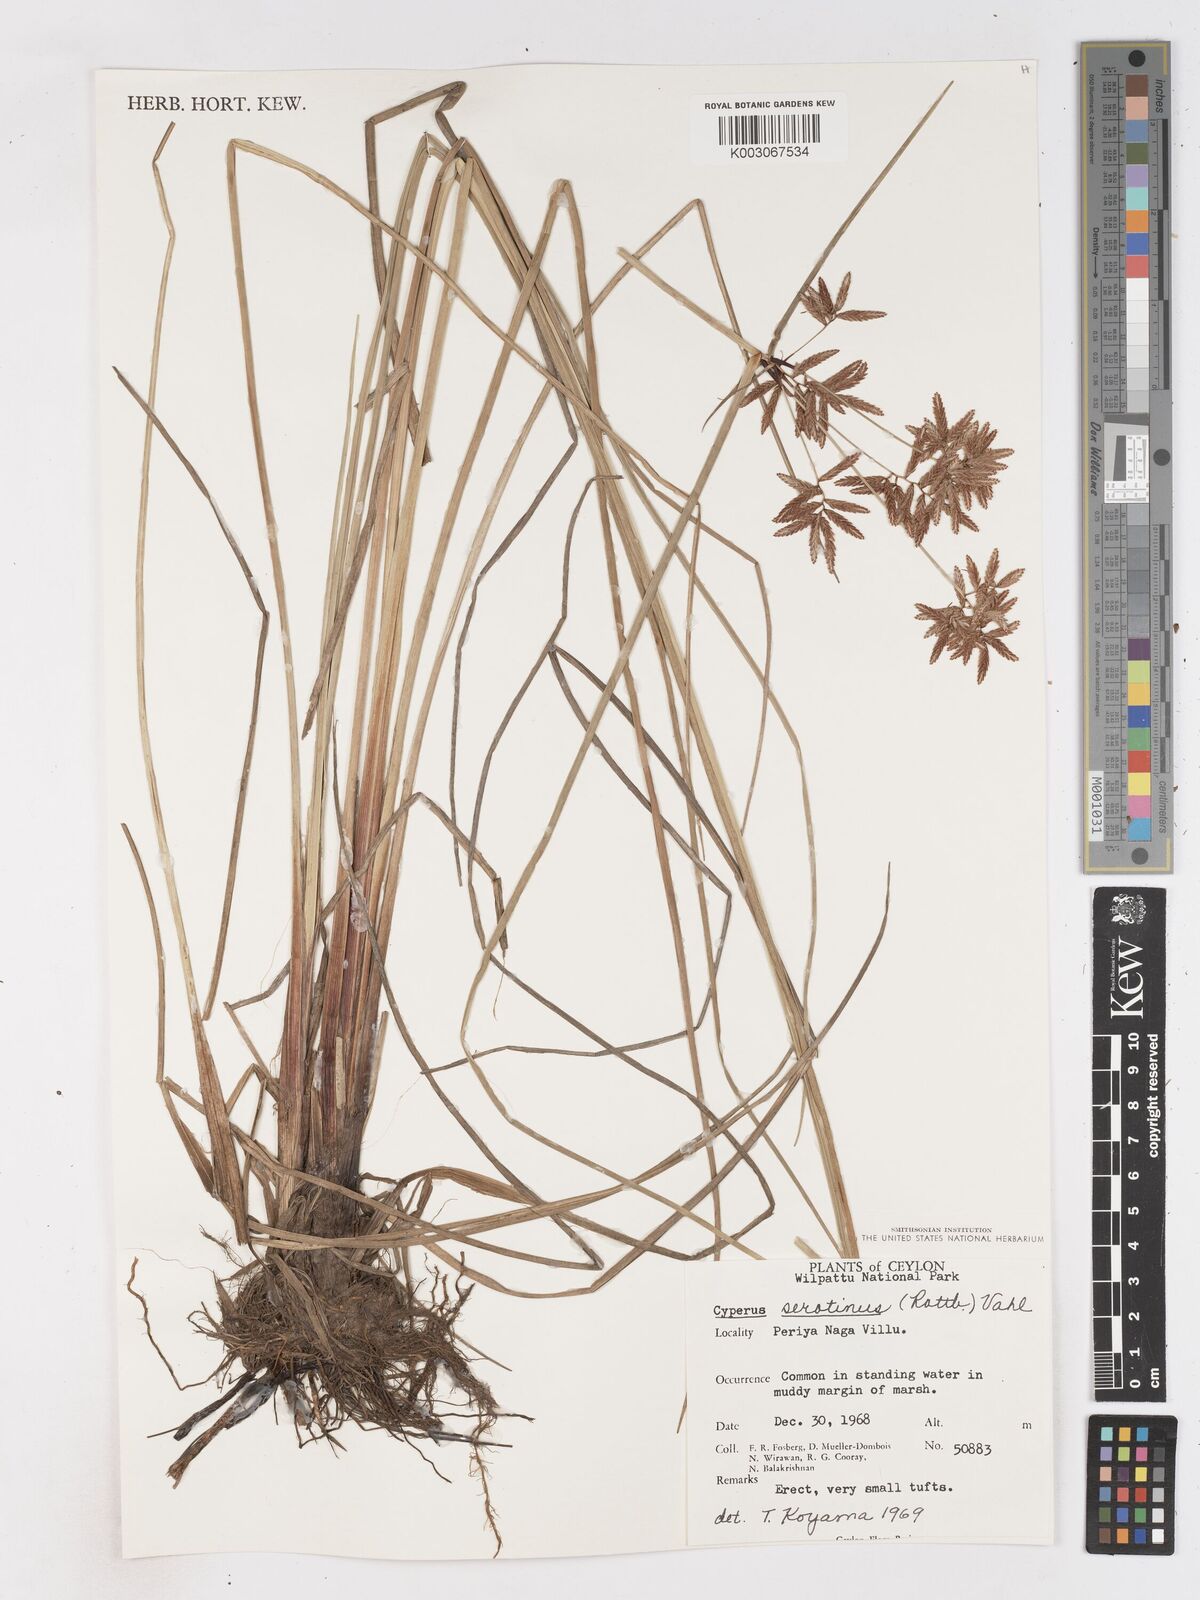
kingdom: Plantae
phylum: Tracheophyta
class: Liliopsida
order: Poales
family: Cyperaceae
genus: Cyperus
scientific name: Cyperus serotinus
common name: Tidalmarsh flatsedge
